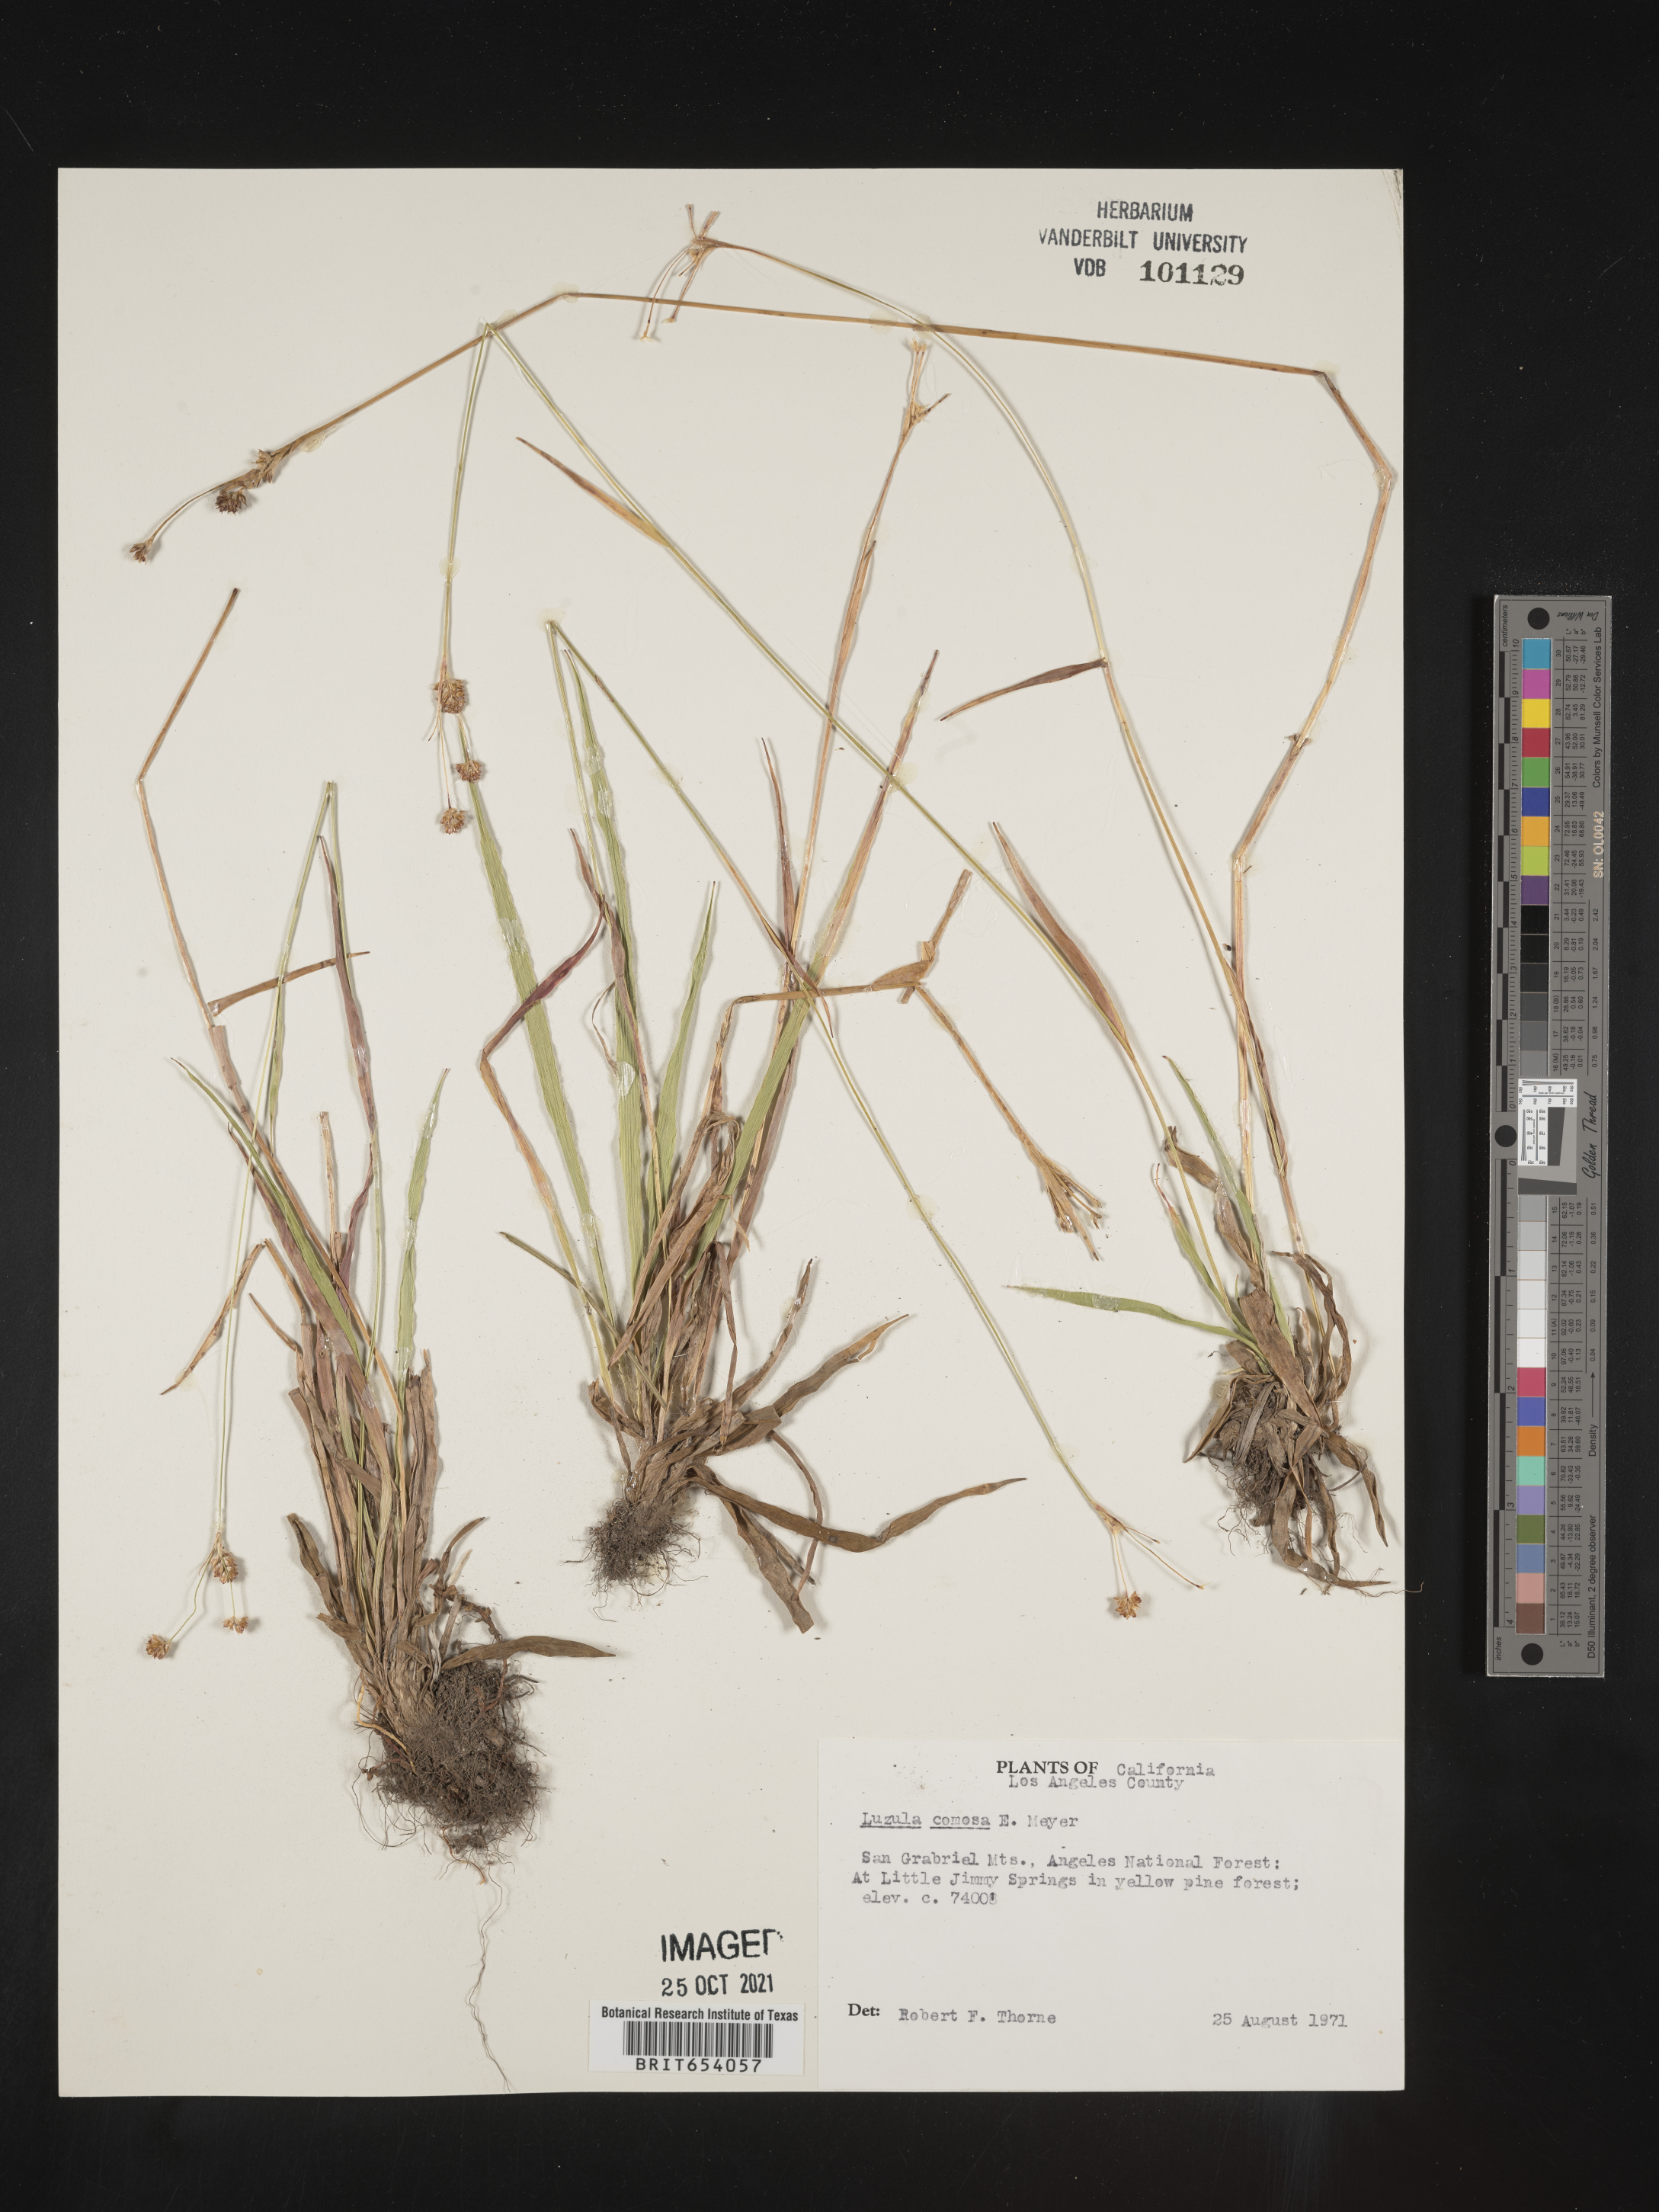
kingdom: Plantae
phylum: Tracheophyta
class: Liliopsida
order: Poales
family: Juncaceae
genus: Luzula
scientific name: Luzula comosa
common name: Pacific woodrush
